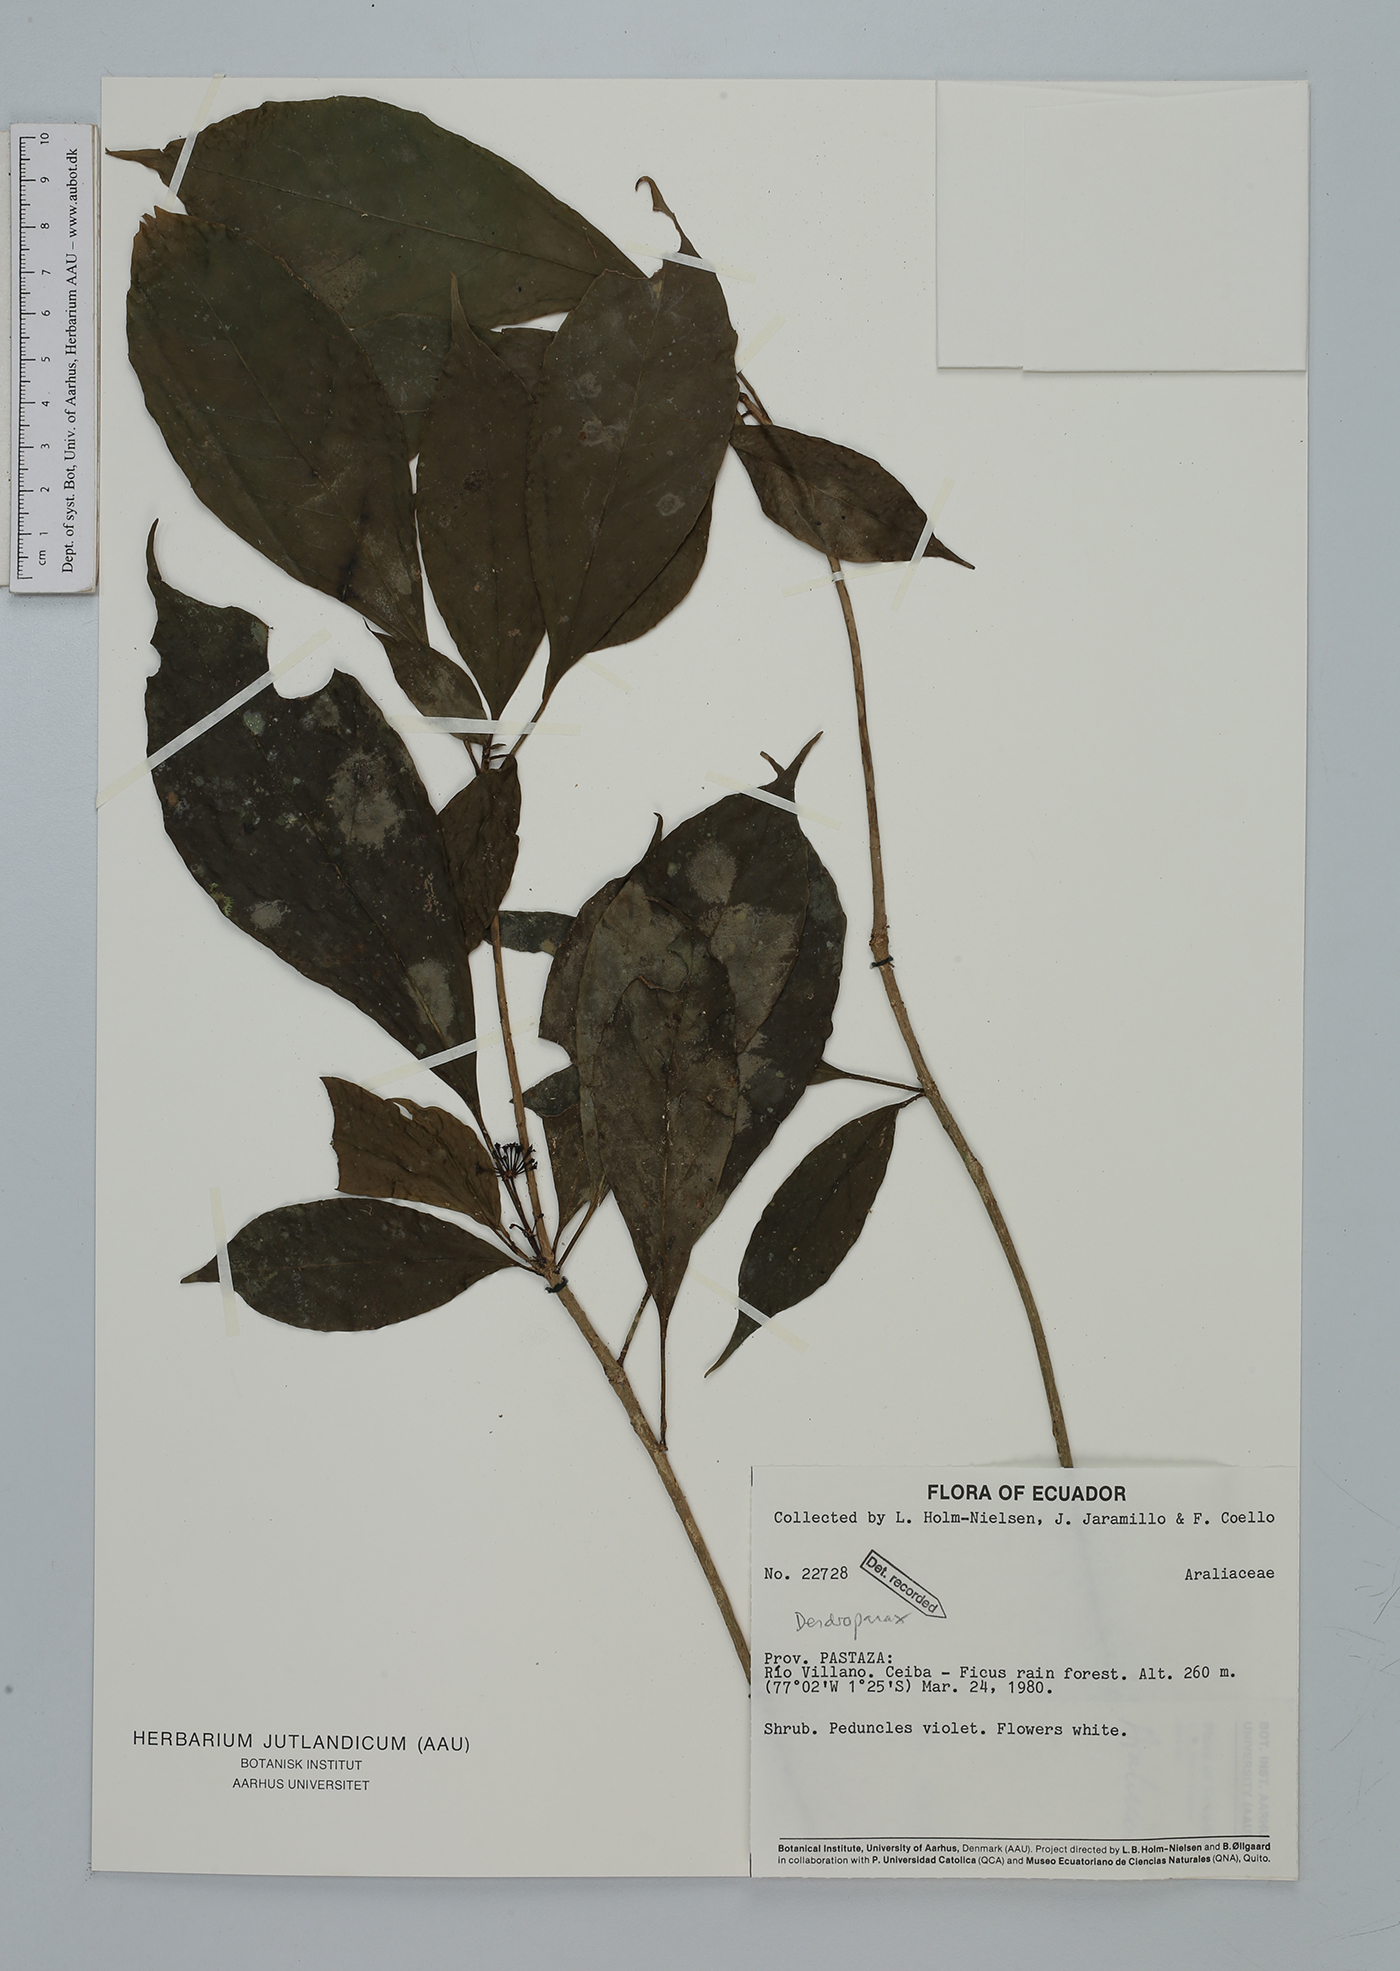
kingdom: Plantae
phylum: Tracheophyta
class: Magnoliopsida
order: Apiales
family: Araliaceae
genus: Dendropanax
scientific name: Dendropanax
